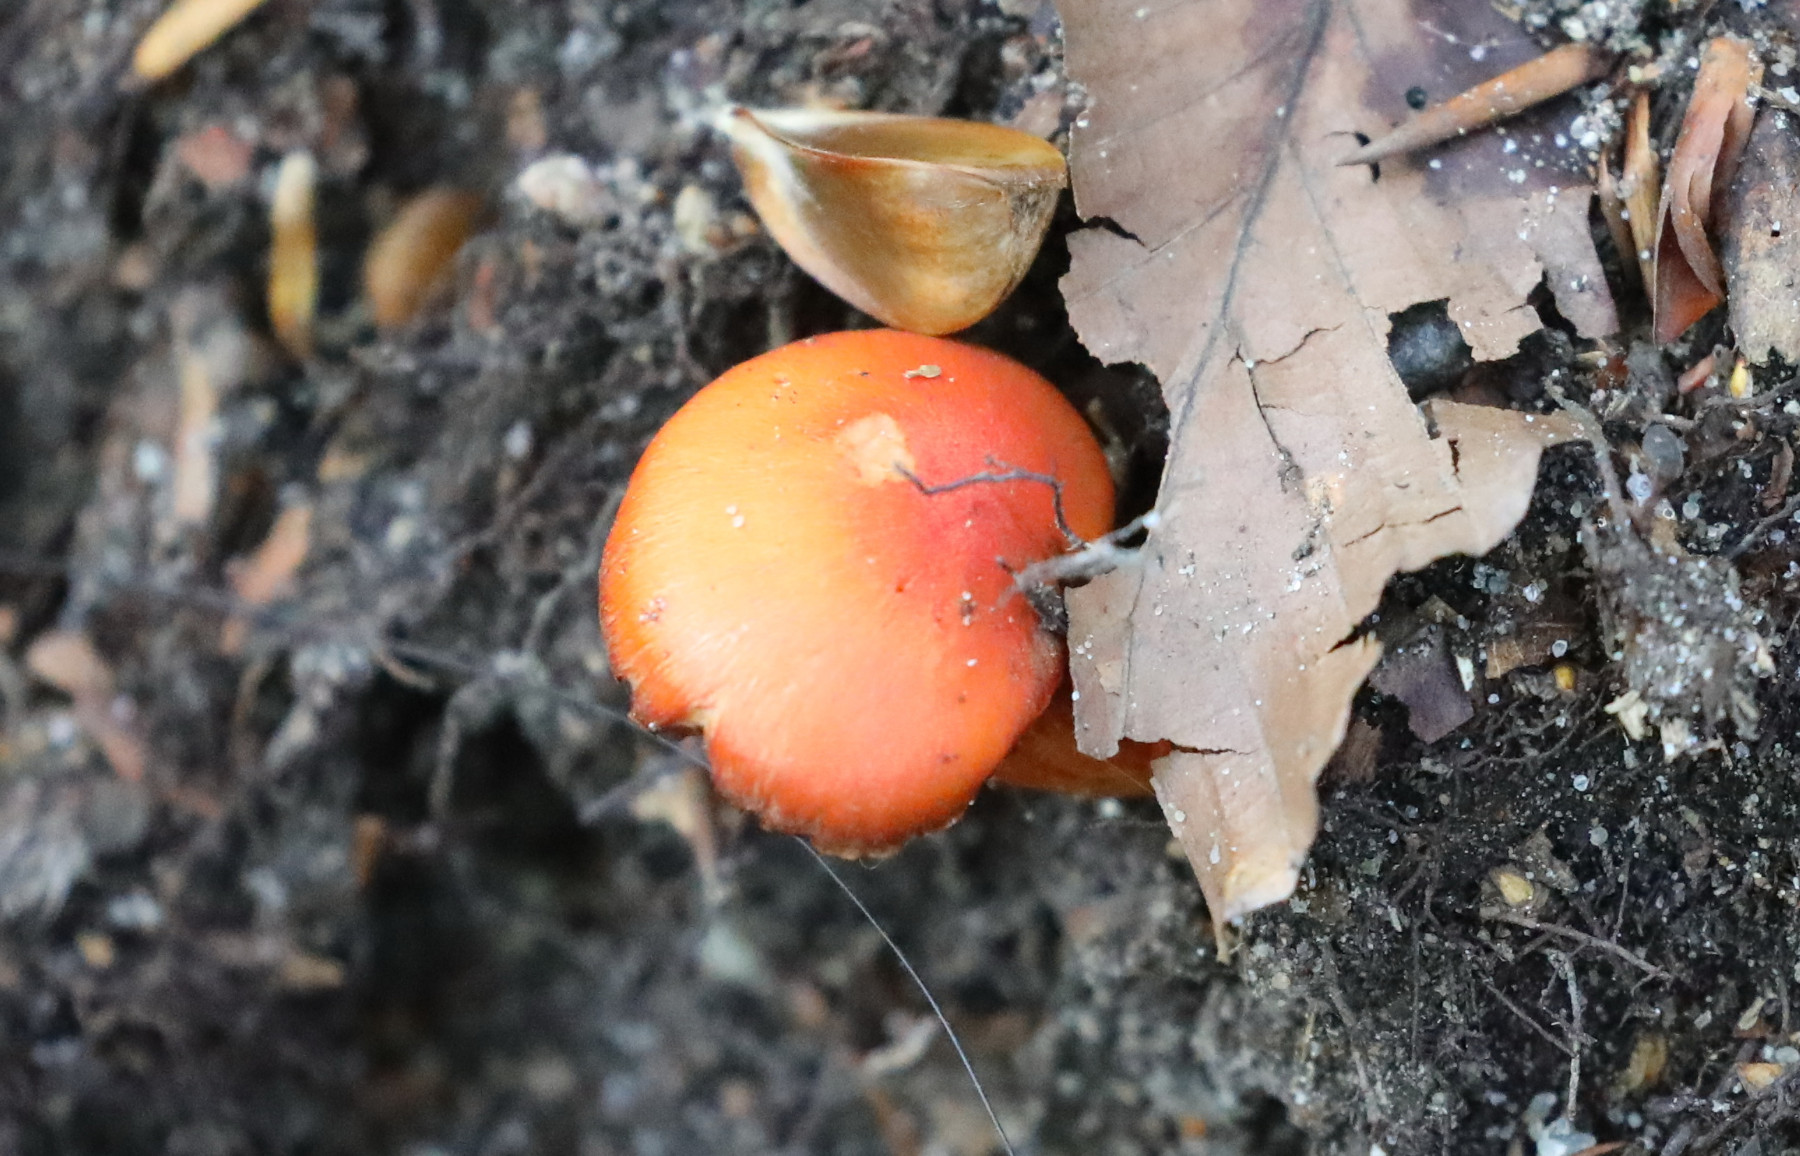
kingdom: Fungi
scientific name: Fungi
